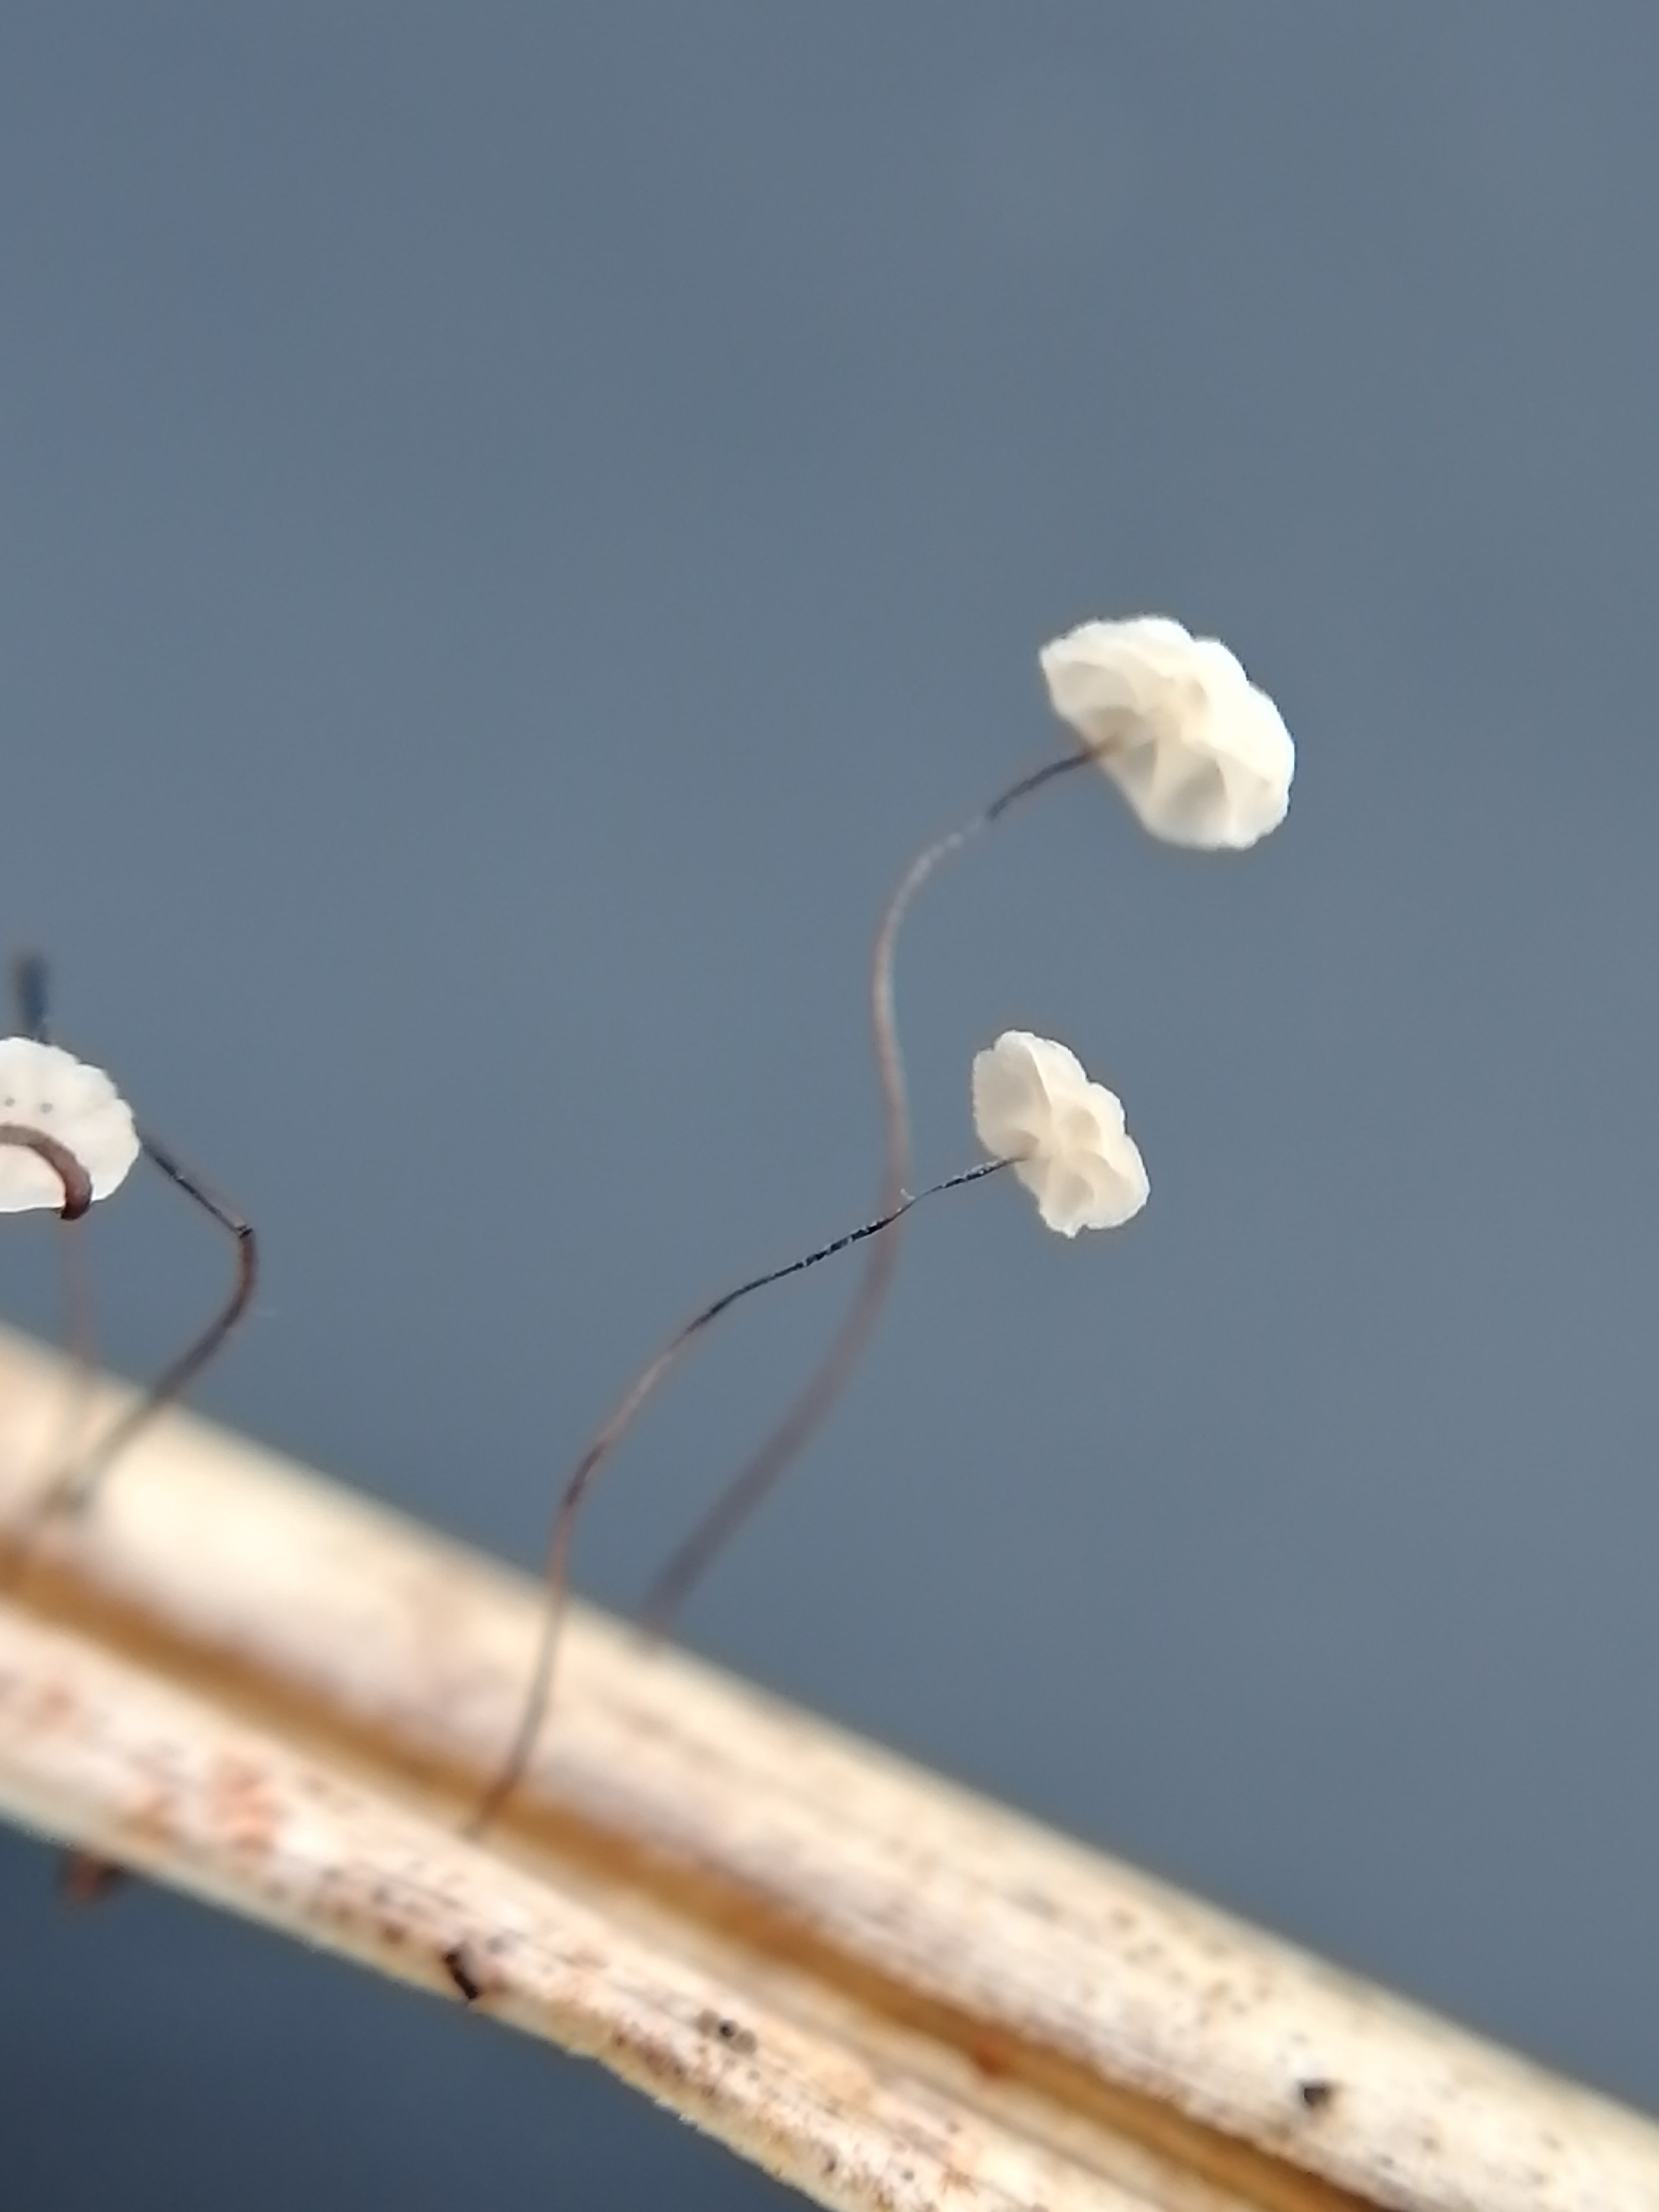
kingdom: Fungi
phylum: Basidiomycota
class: Agaricomycetes
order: Agaricales
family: Marasmiaceae
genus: Marasmius
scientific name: Marasmius limosus
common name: kær-bruskhat
